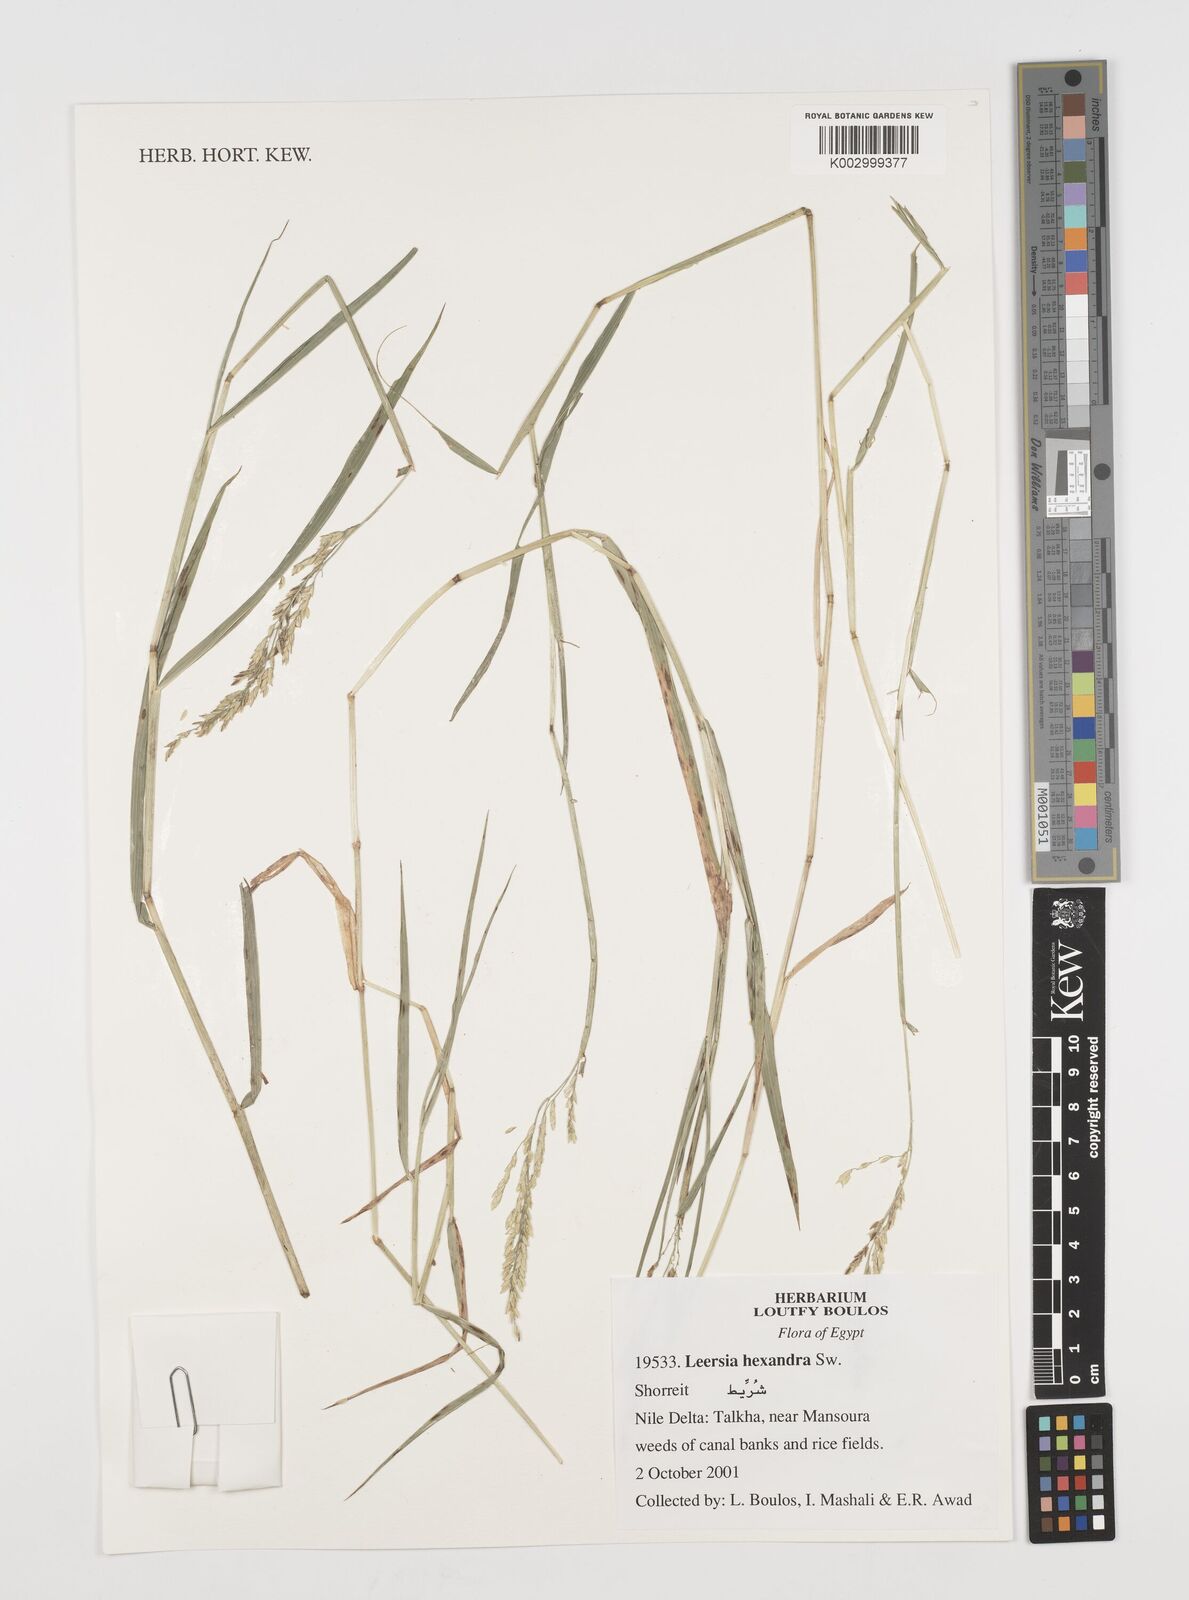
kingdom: Plantae
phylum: Tracheophyta
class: Liliopsida
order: Poales
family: Poaceae
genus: Leersia
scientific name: Leersia hexandra
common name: Southern cut grass
